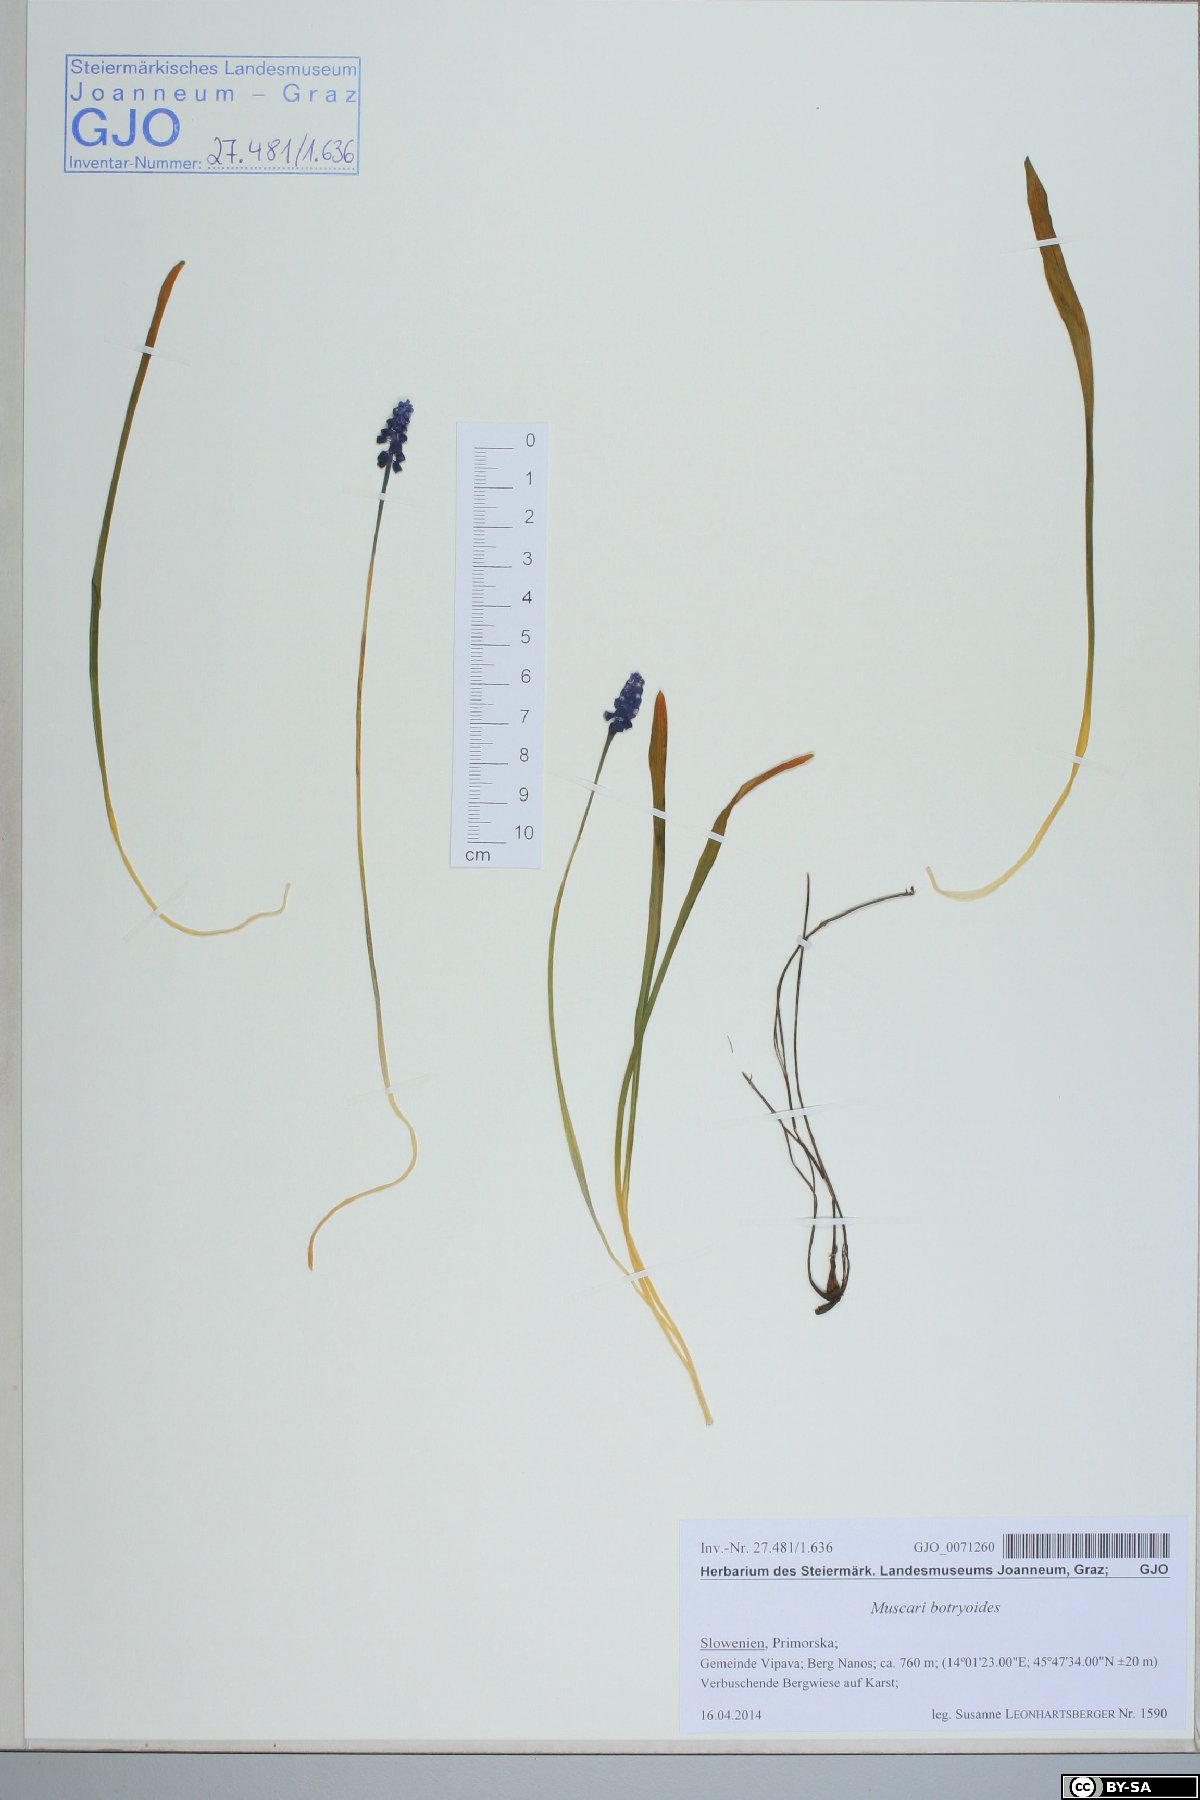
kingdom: Plantae
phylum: Tracheophyta
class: Liliopsida
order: Asparagales
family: Asparagaceae
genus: Muscari
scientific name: Muscari botryoides
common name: Compact grape-hyacinth
